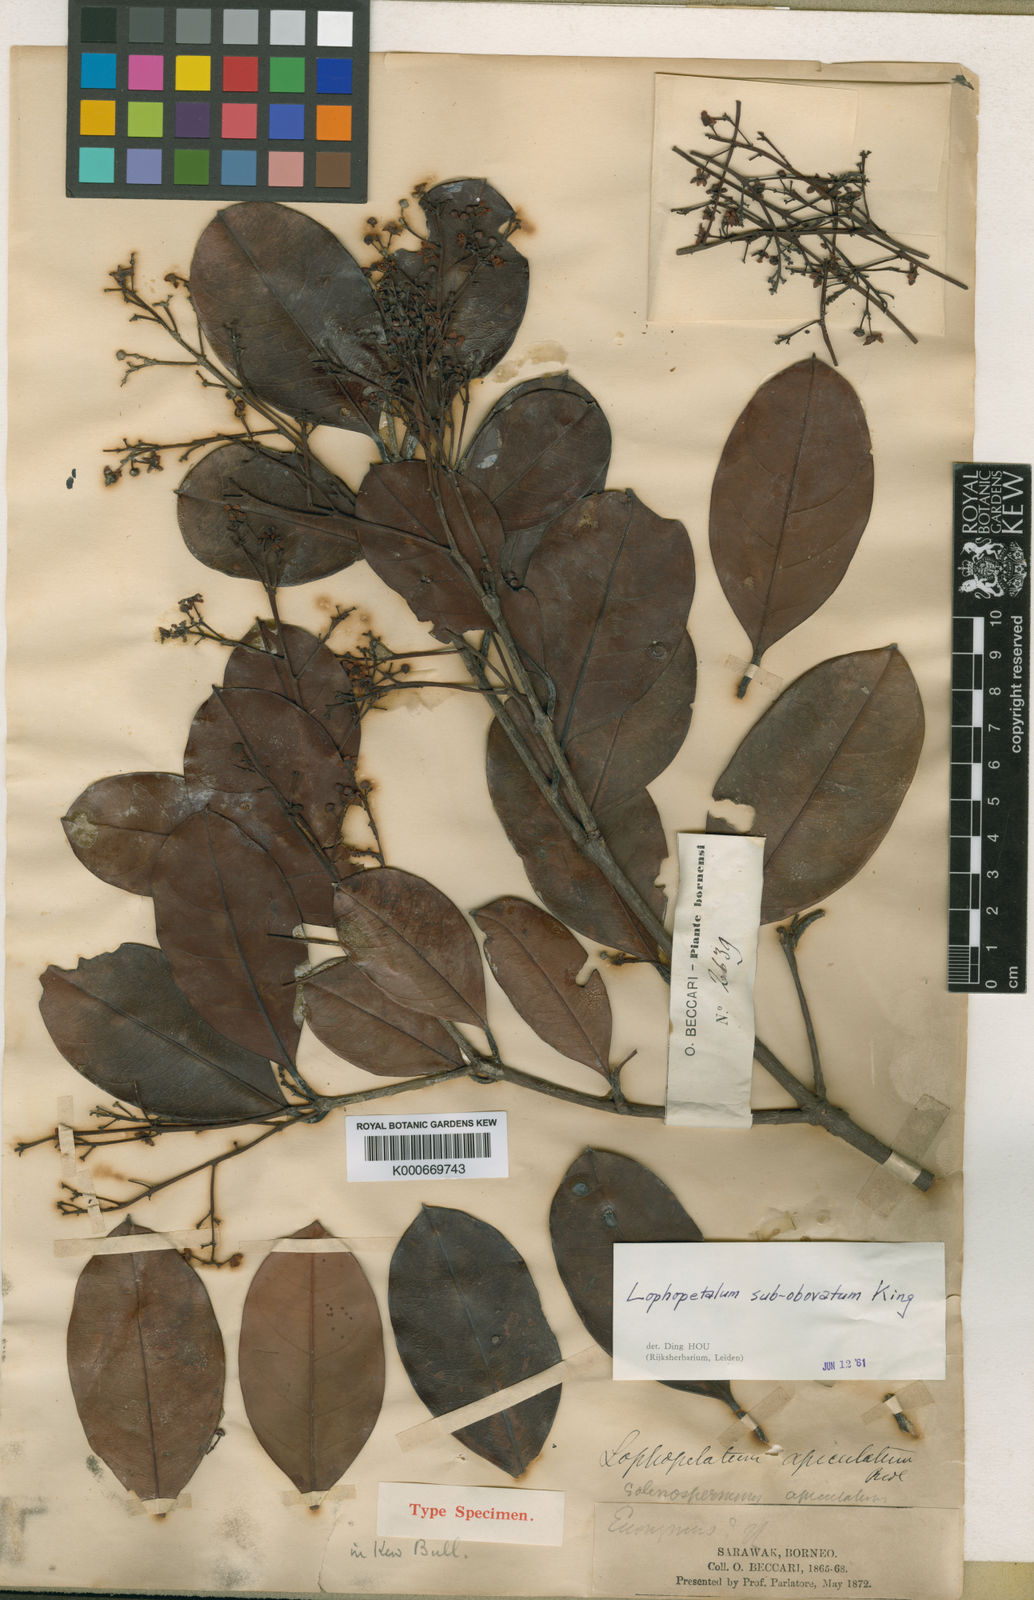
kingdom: Plantae
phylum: Tracheophyta
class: Magnoliopsida
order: Celastrales
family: Celastraceae
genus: Lophopetalum
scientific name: Lophopetalum subobovatum
